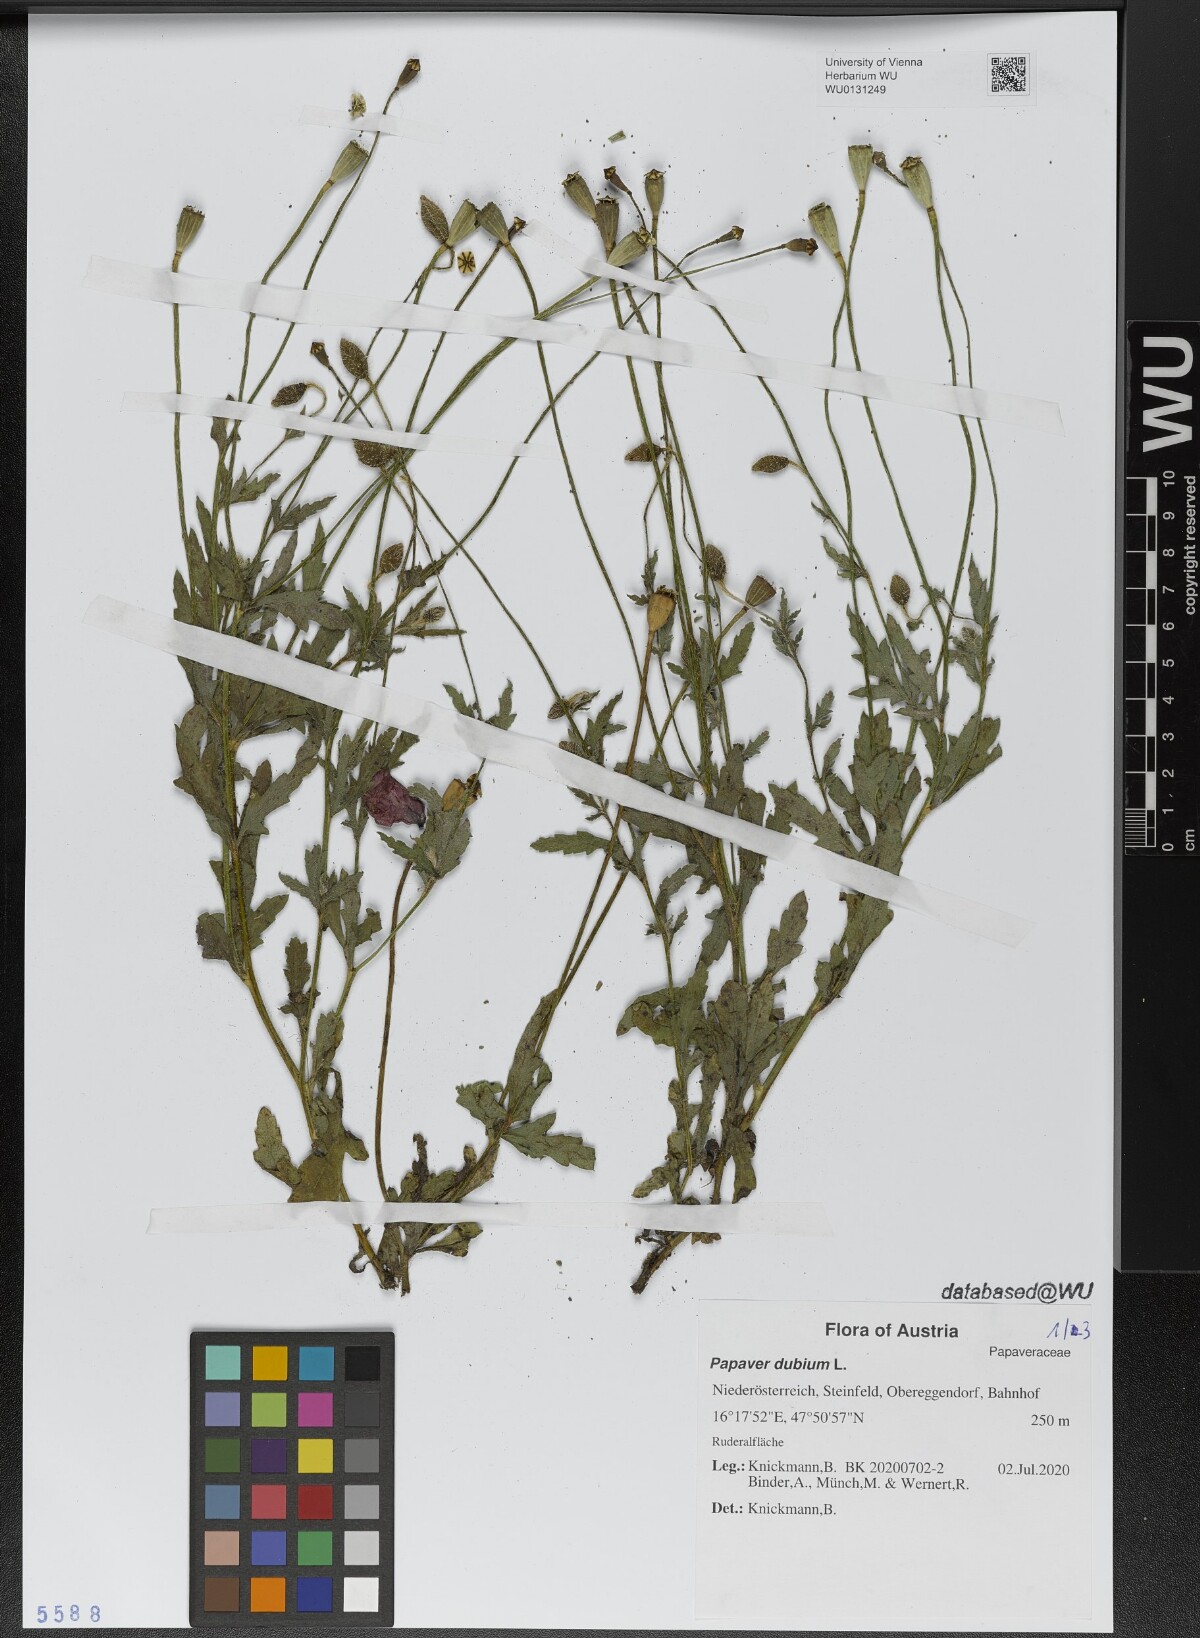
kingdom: Plantae
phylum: Tracheophyta
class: Magnoliopsida
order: Ranunculales
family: Papaveraceae
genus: Papaver
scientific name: Papaver dubium
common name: Long-headed poppy
